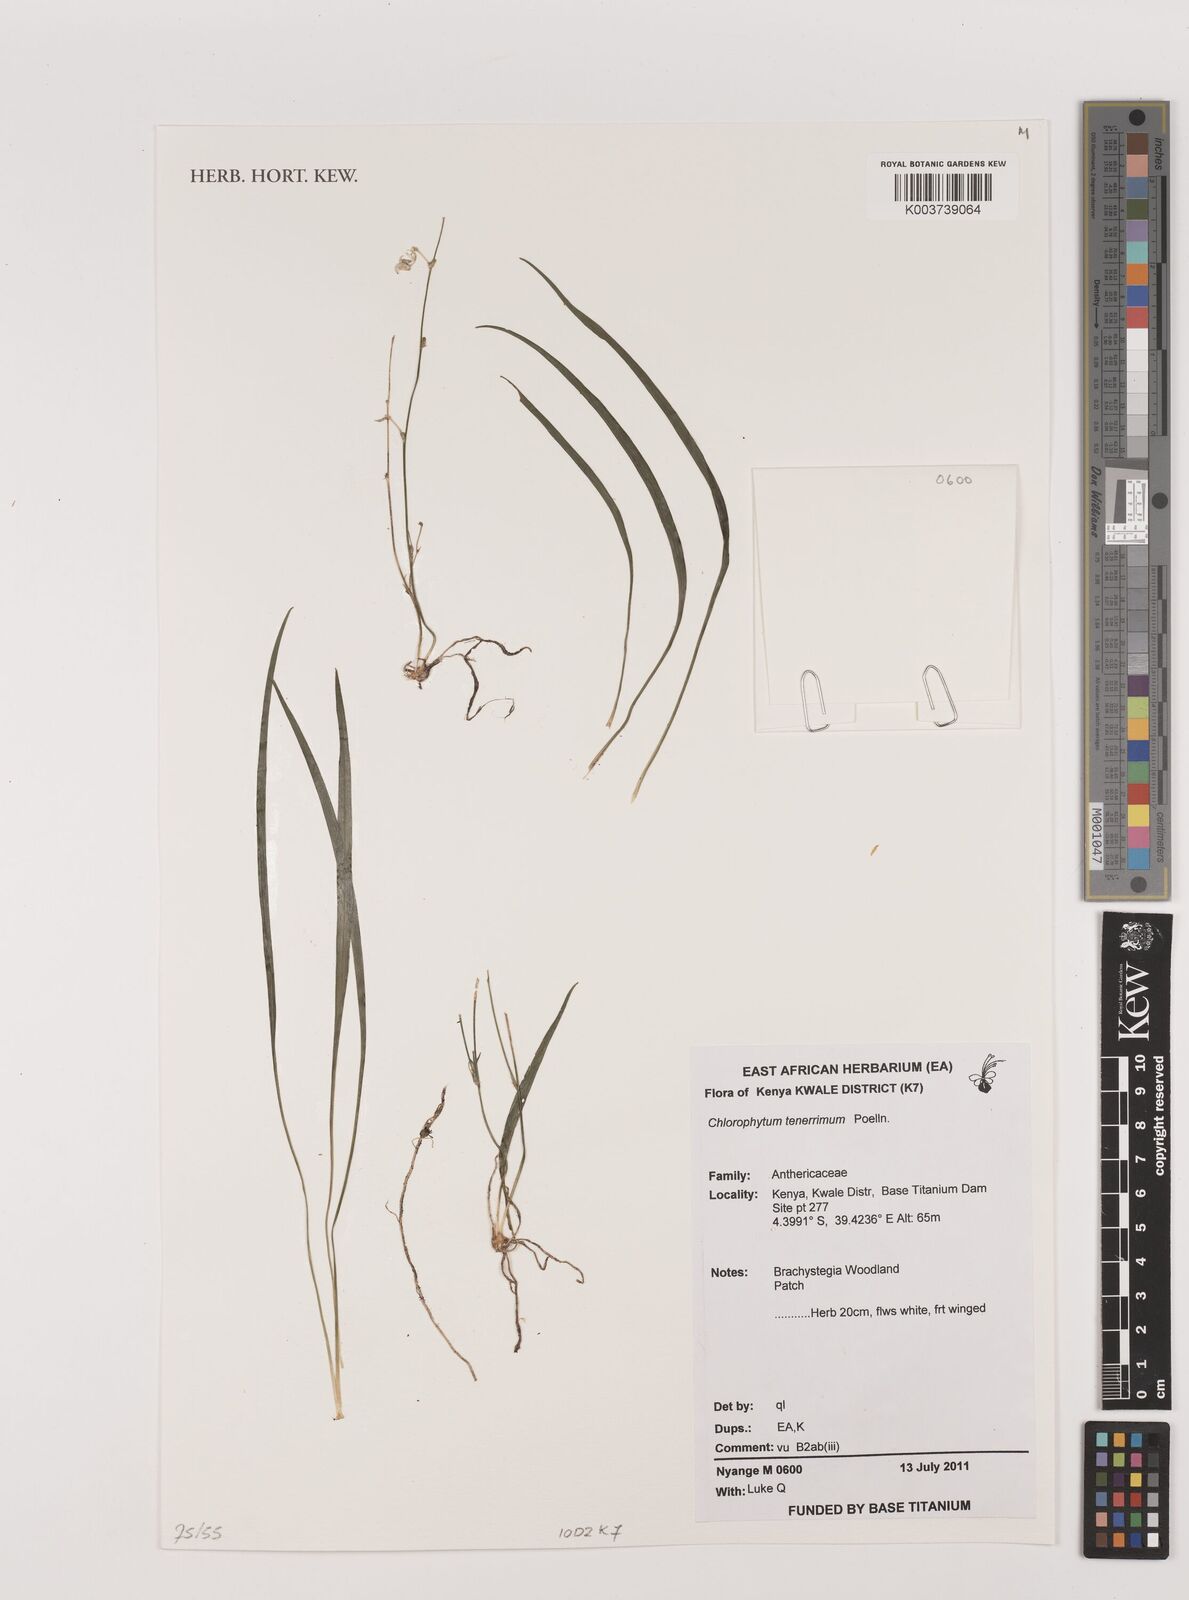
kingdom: Plantae
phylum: Tracheophyta
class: Liliopsida
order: Asparagales
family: Asparagaceae
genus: Chlorophytum
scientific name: Chlorophytum tenerrimum
